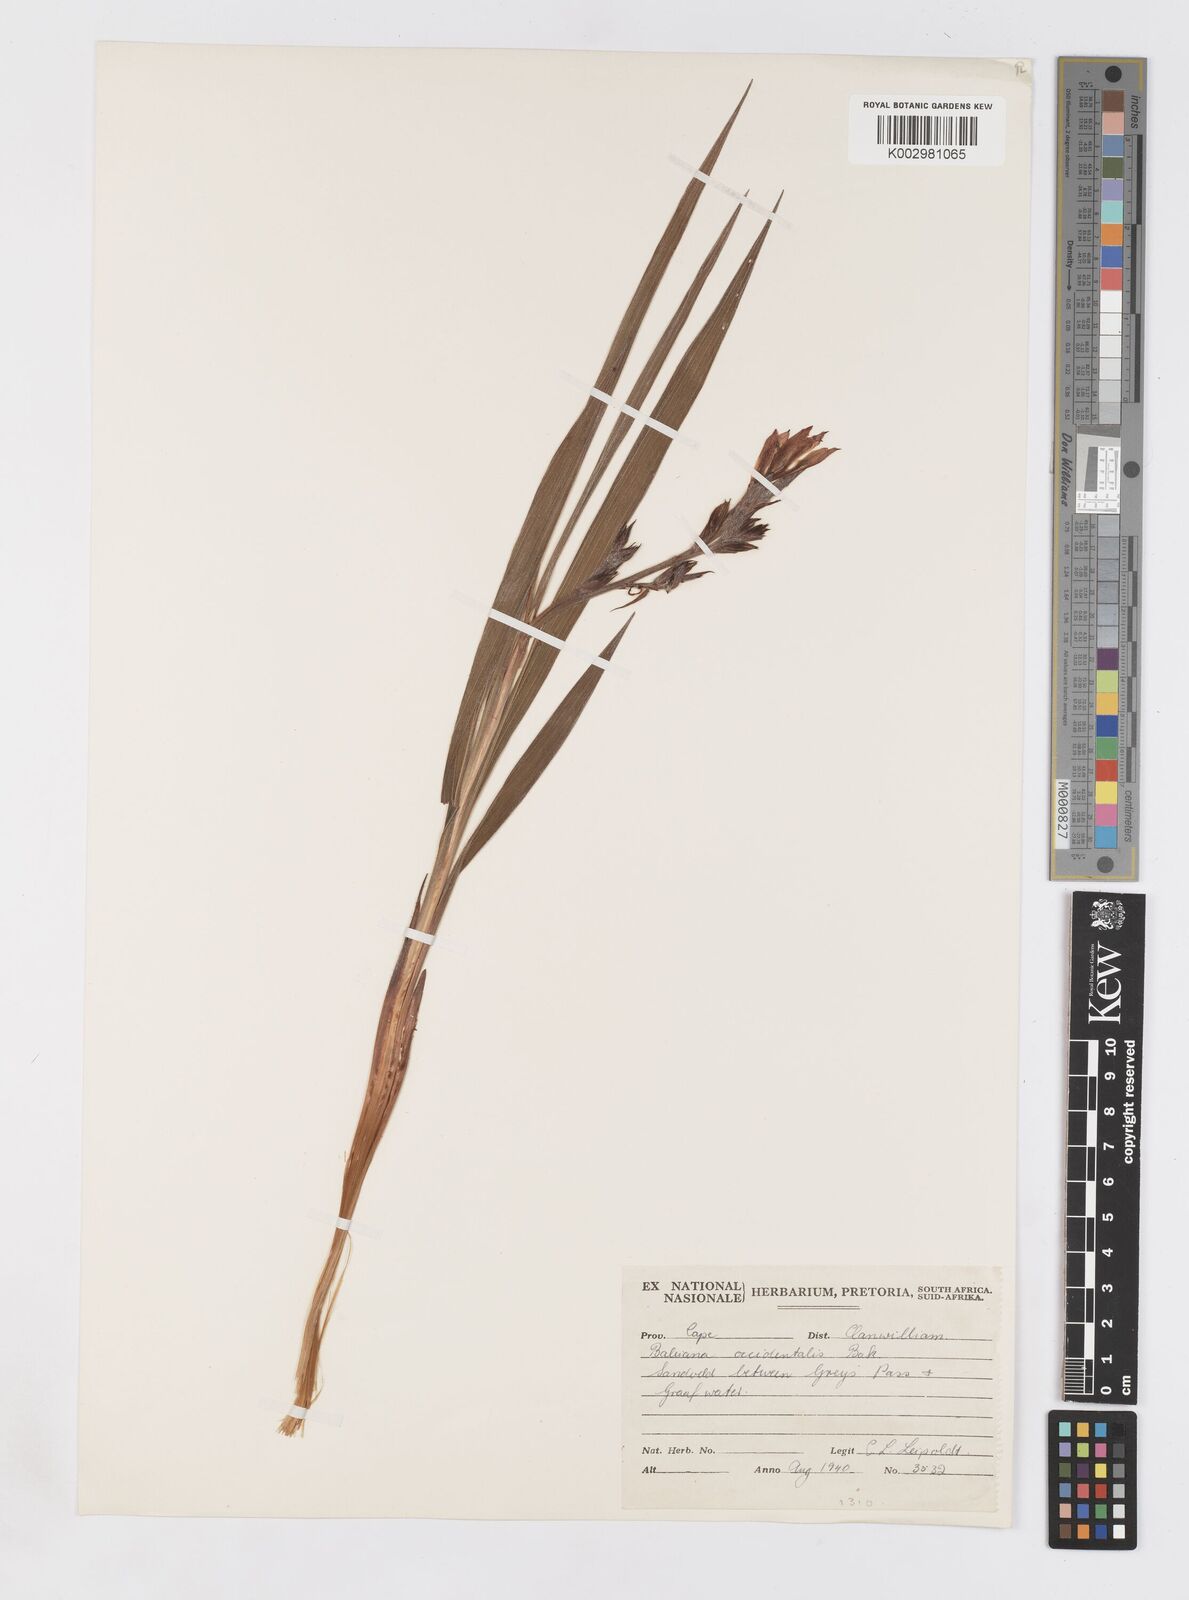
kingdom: Plantae
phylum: Tracheophyta
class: Liliopsida
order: Asparagales
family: Iridaceae
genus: Babiana
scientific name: Babiana mucronata
